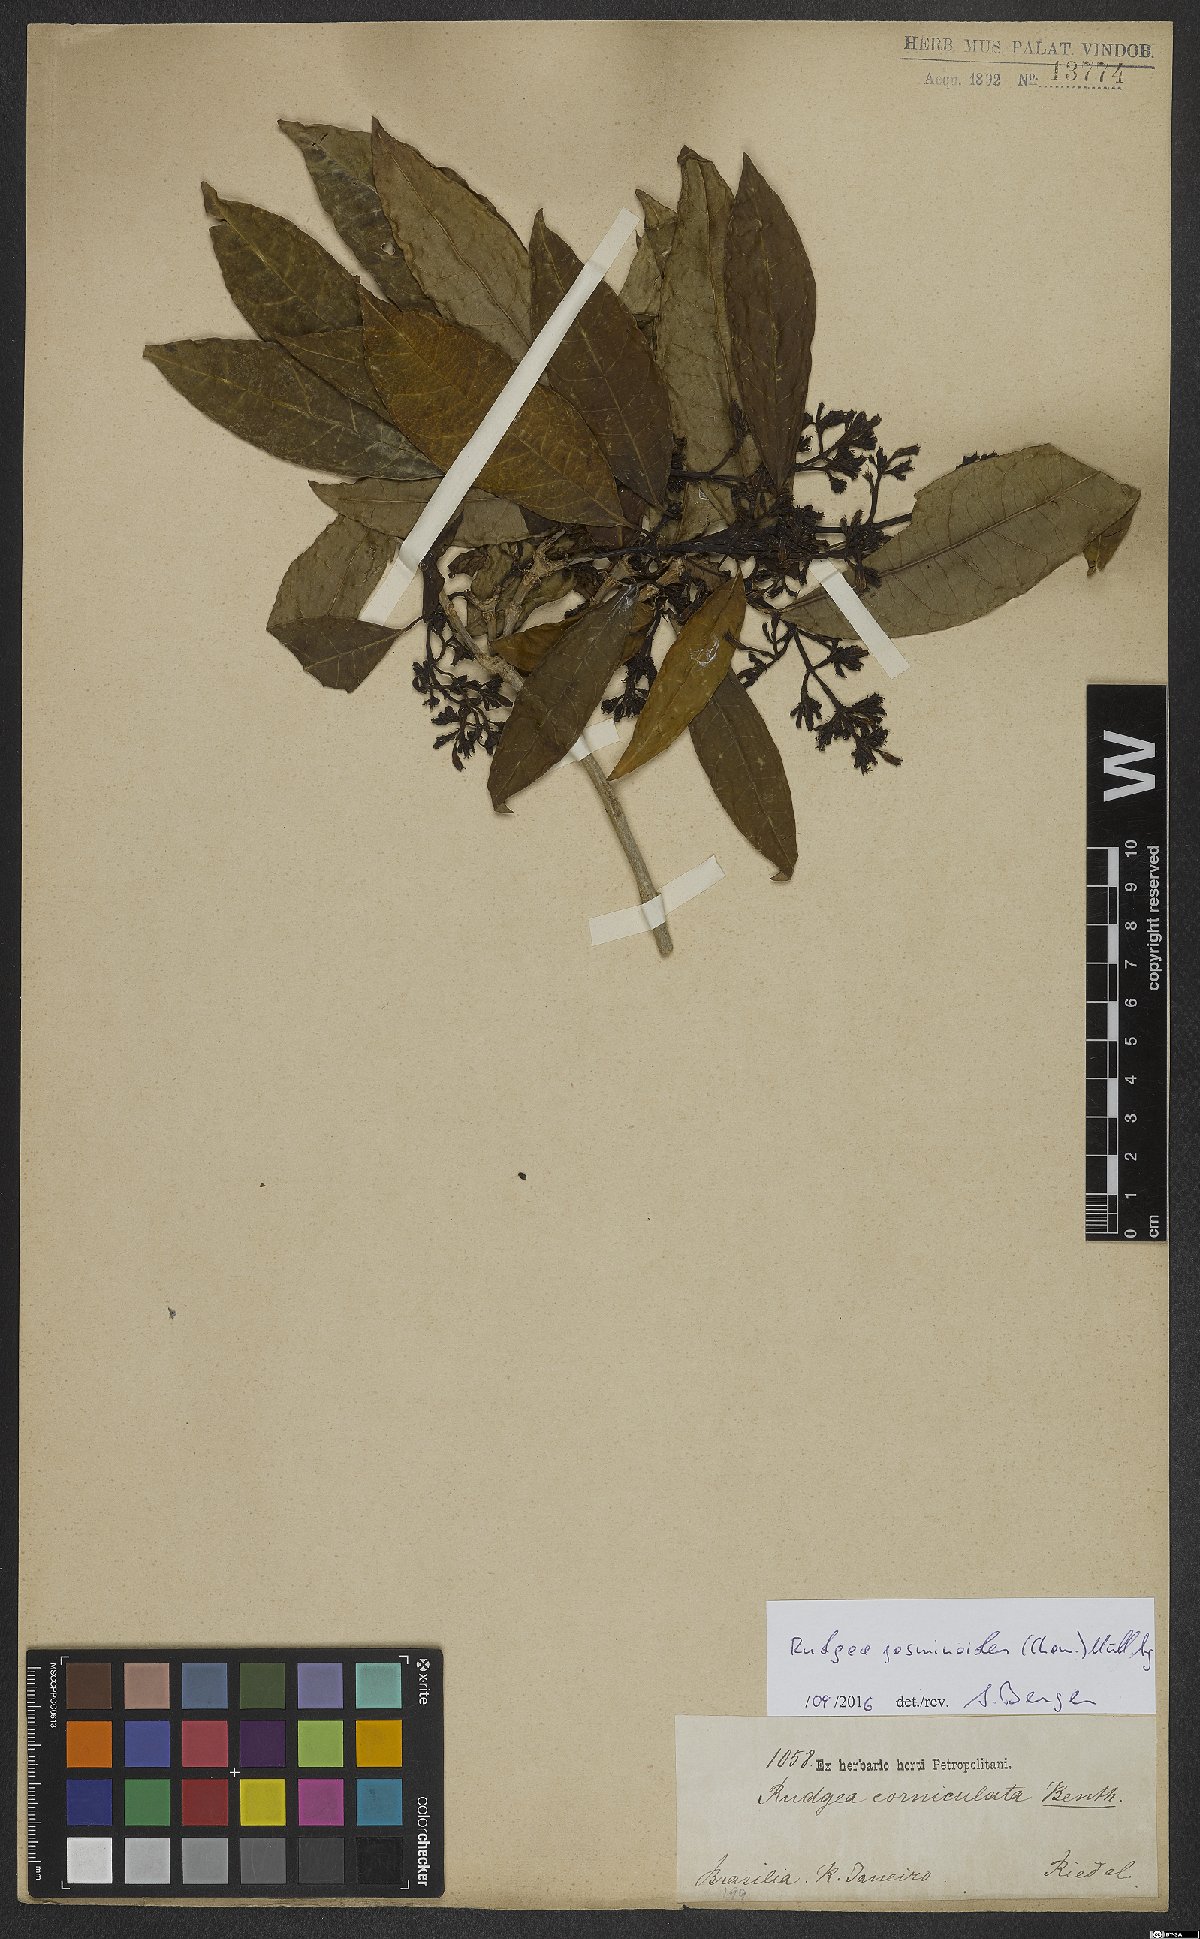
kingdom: Plantae
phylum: Tracheophyta
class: Magnoliopsida
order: Gentianales
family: Rubiaceae
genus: Rudgea
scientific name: Rudgea jasminoides
